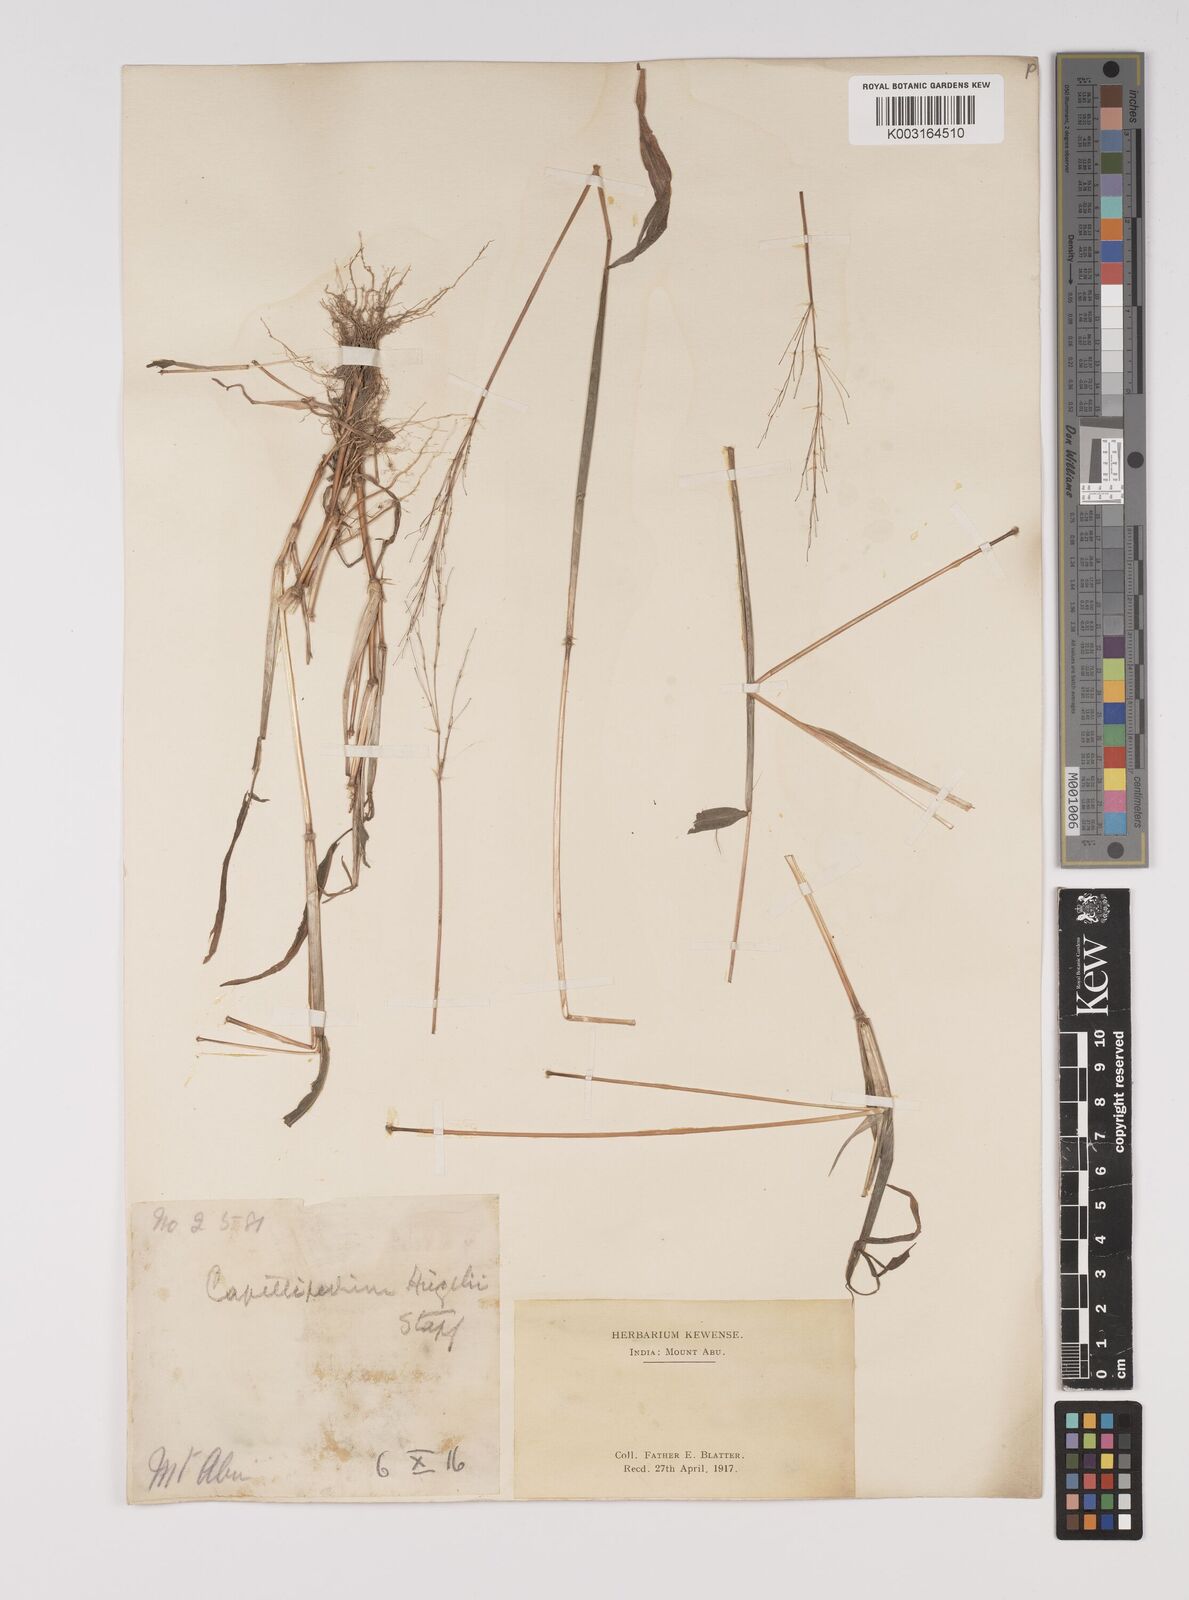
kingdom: Plantae
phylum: Tracheophyta
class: Liliopsida
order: Poales
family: Poaceae
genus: Capillipedium
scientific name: Capillipedium huegelii
